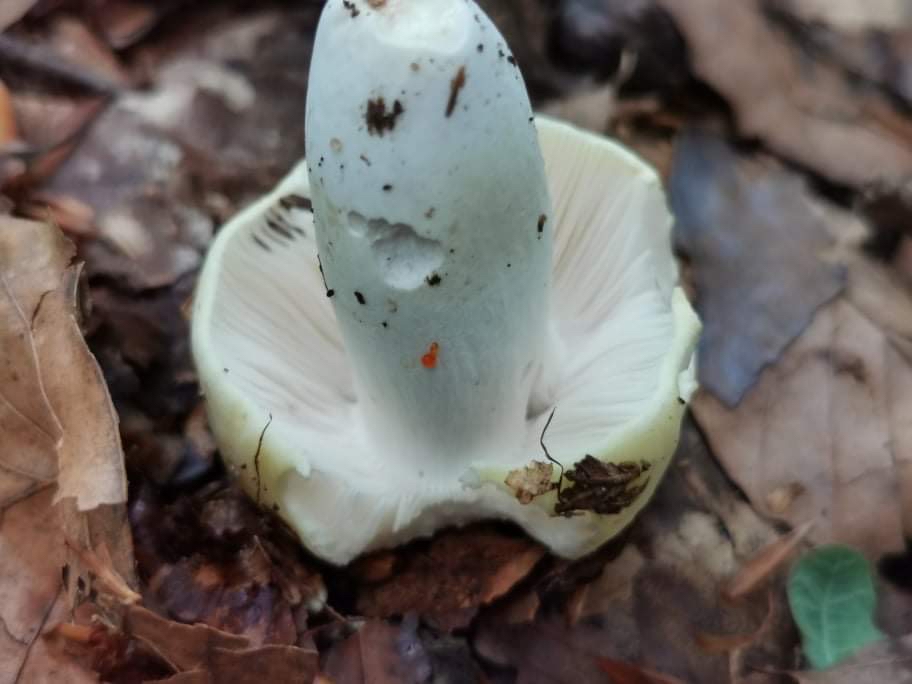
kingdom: Fungi
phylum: Basidiomycota
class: Agaricomycetes
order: Russulales
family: Russulaceae
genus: Russula
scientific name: Russula violeipes
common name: ferskengul skørhat
